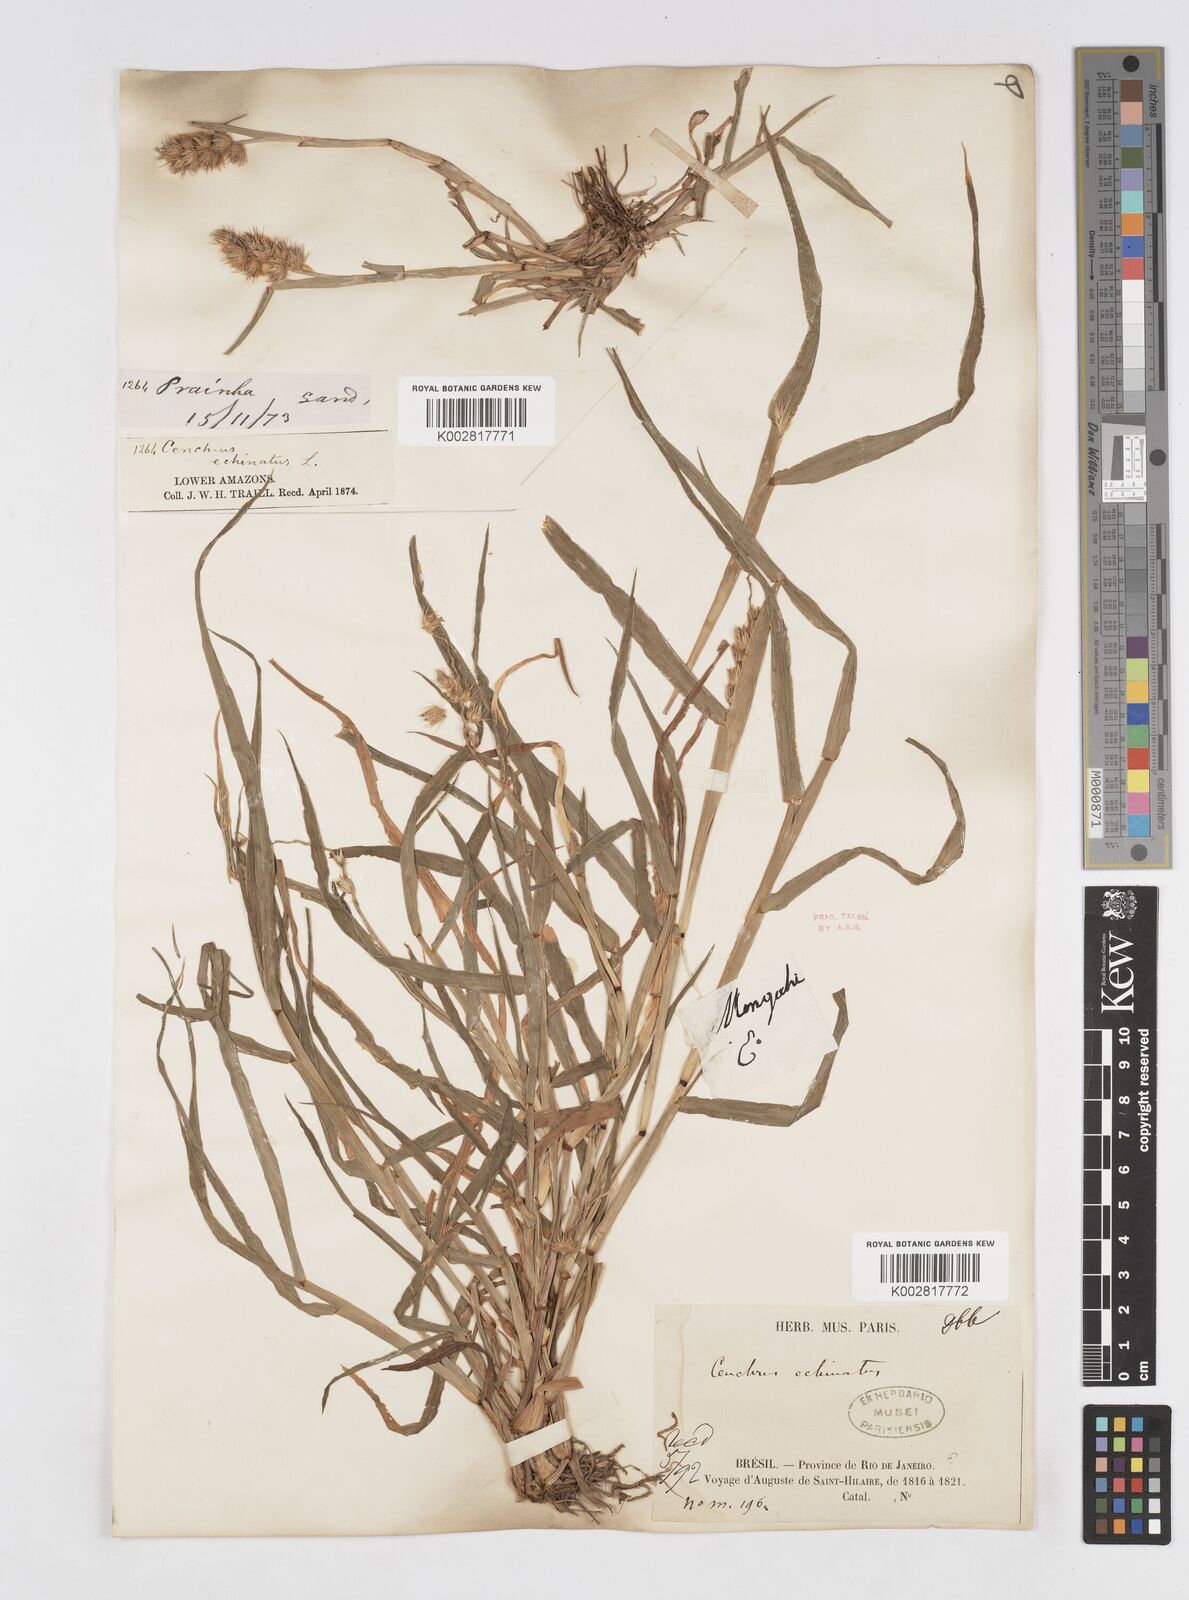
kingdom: Plantae
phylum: Tracheophyta
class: Liliopsida
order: Poales
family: Poaceae
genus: Cenchrus
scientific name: Cenchrus
